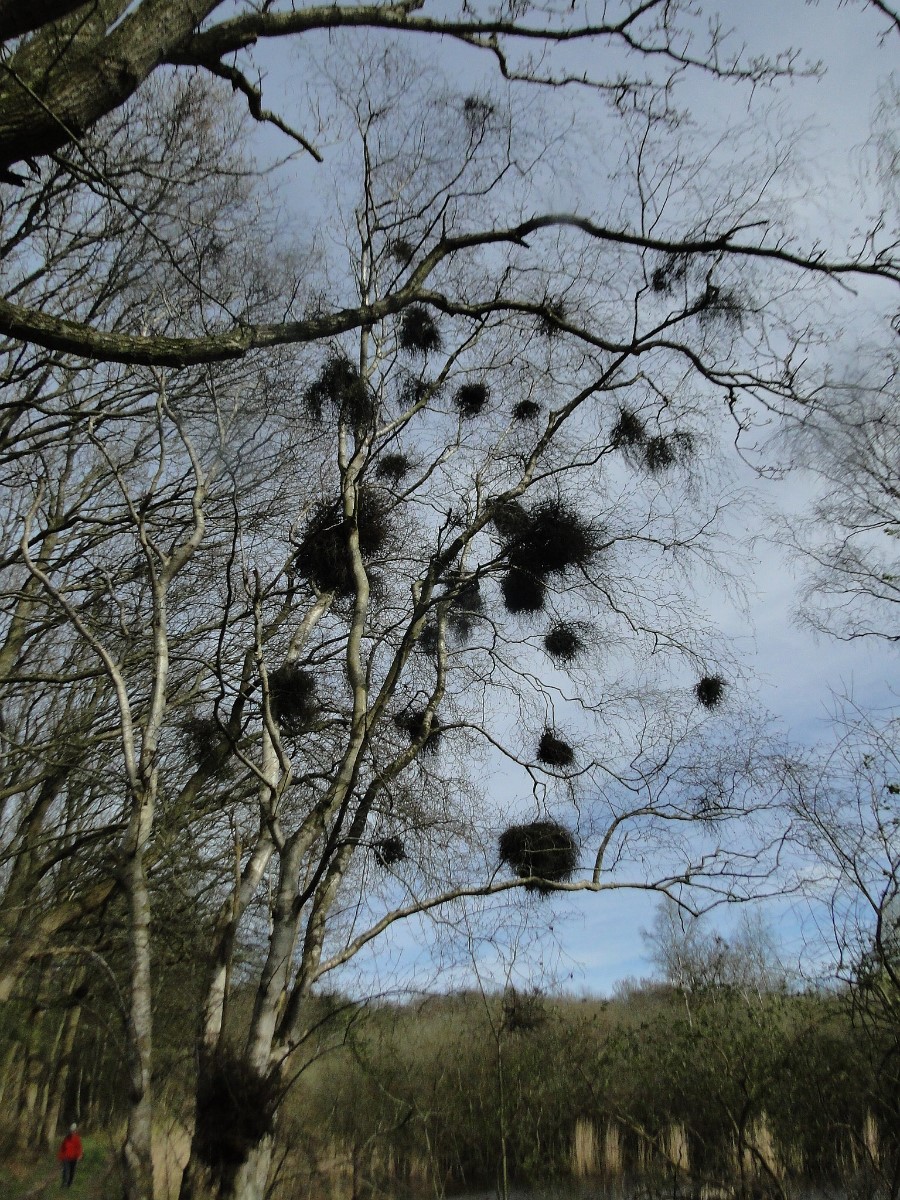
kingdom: Fungi
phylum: Ascomycota
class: Taphrinomycetes
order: Taphrinales
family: Taphrinaceae
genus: Taphrina
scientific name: Taphrina betulina
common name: hekse-sækdug
